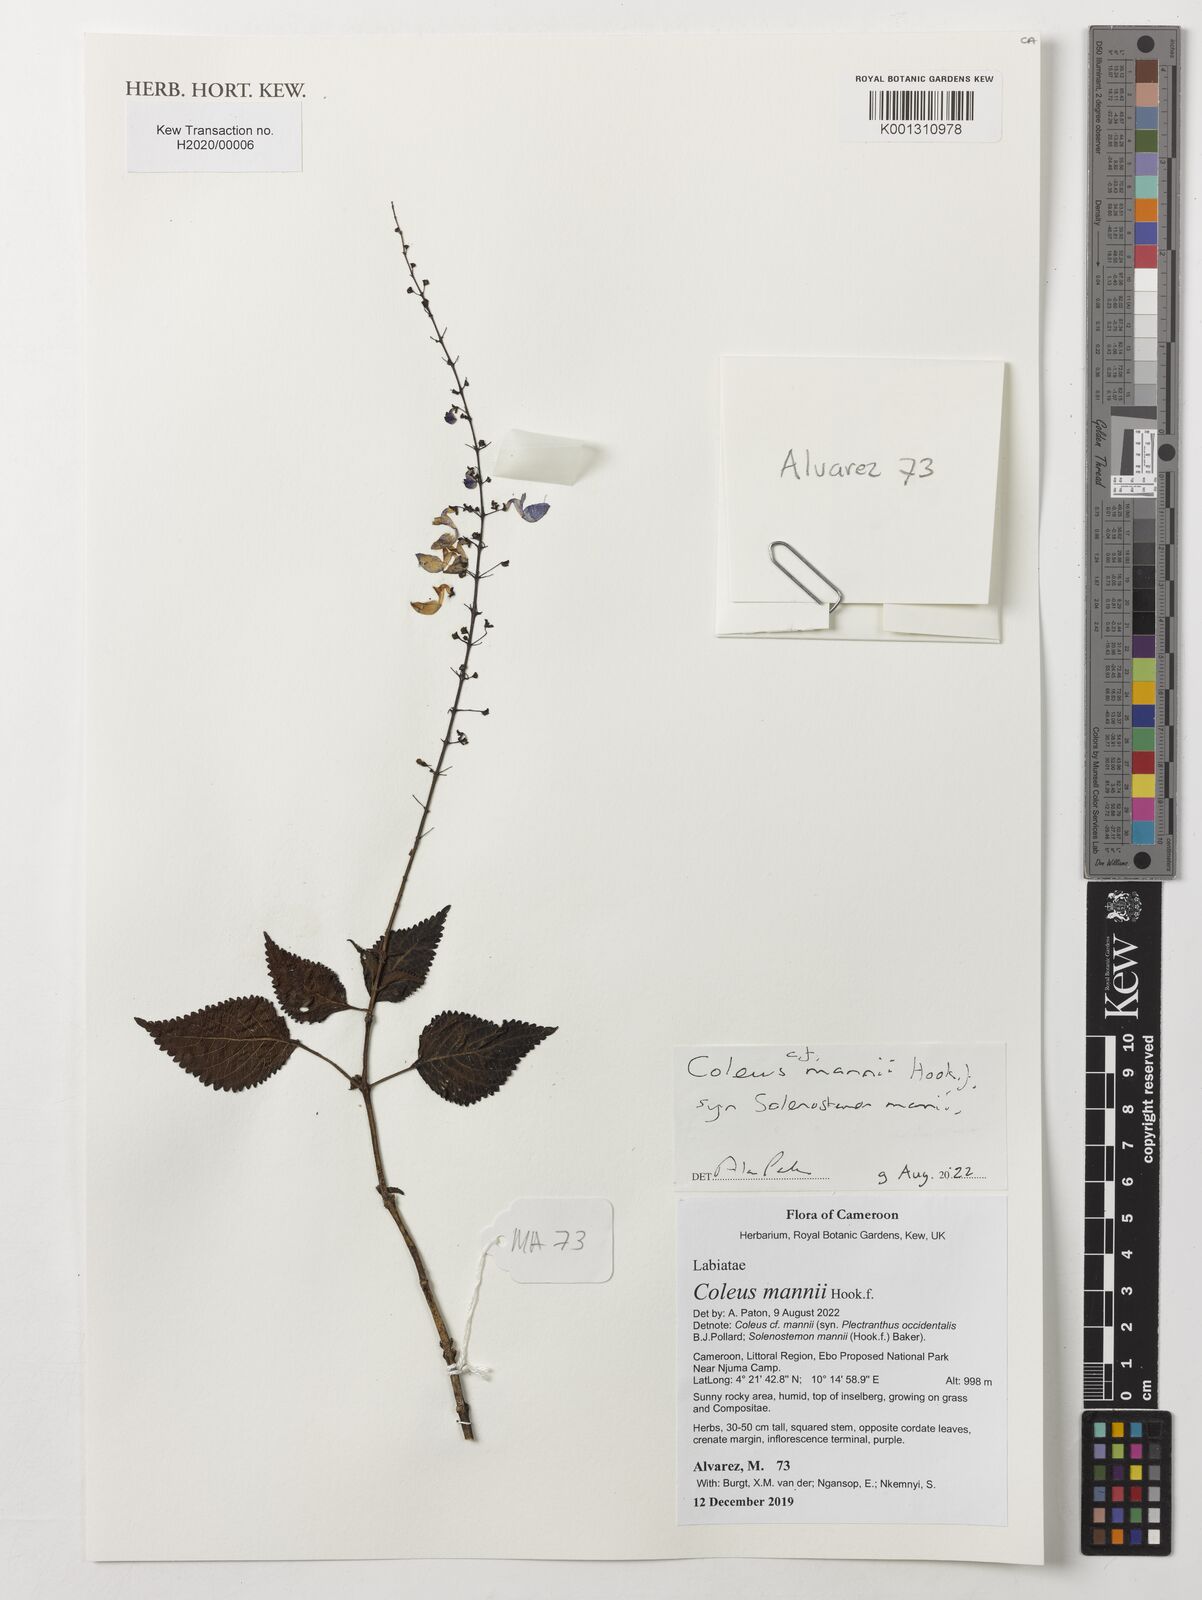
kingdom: Plantae
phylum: Tracheophyta
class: Magnoliopsida
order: Lamiales
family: Lamiaceae
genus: Coleus
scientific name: Coleus mannii
